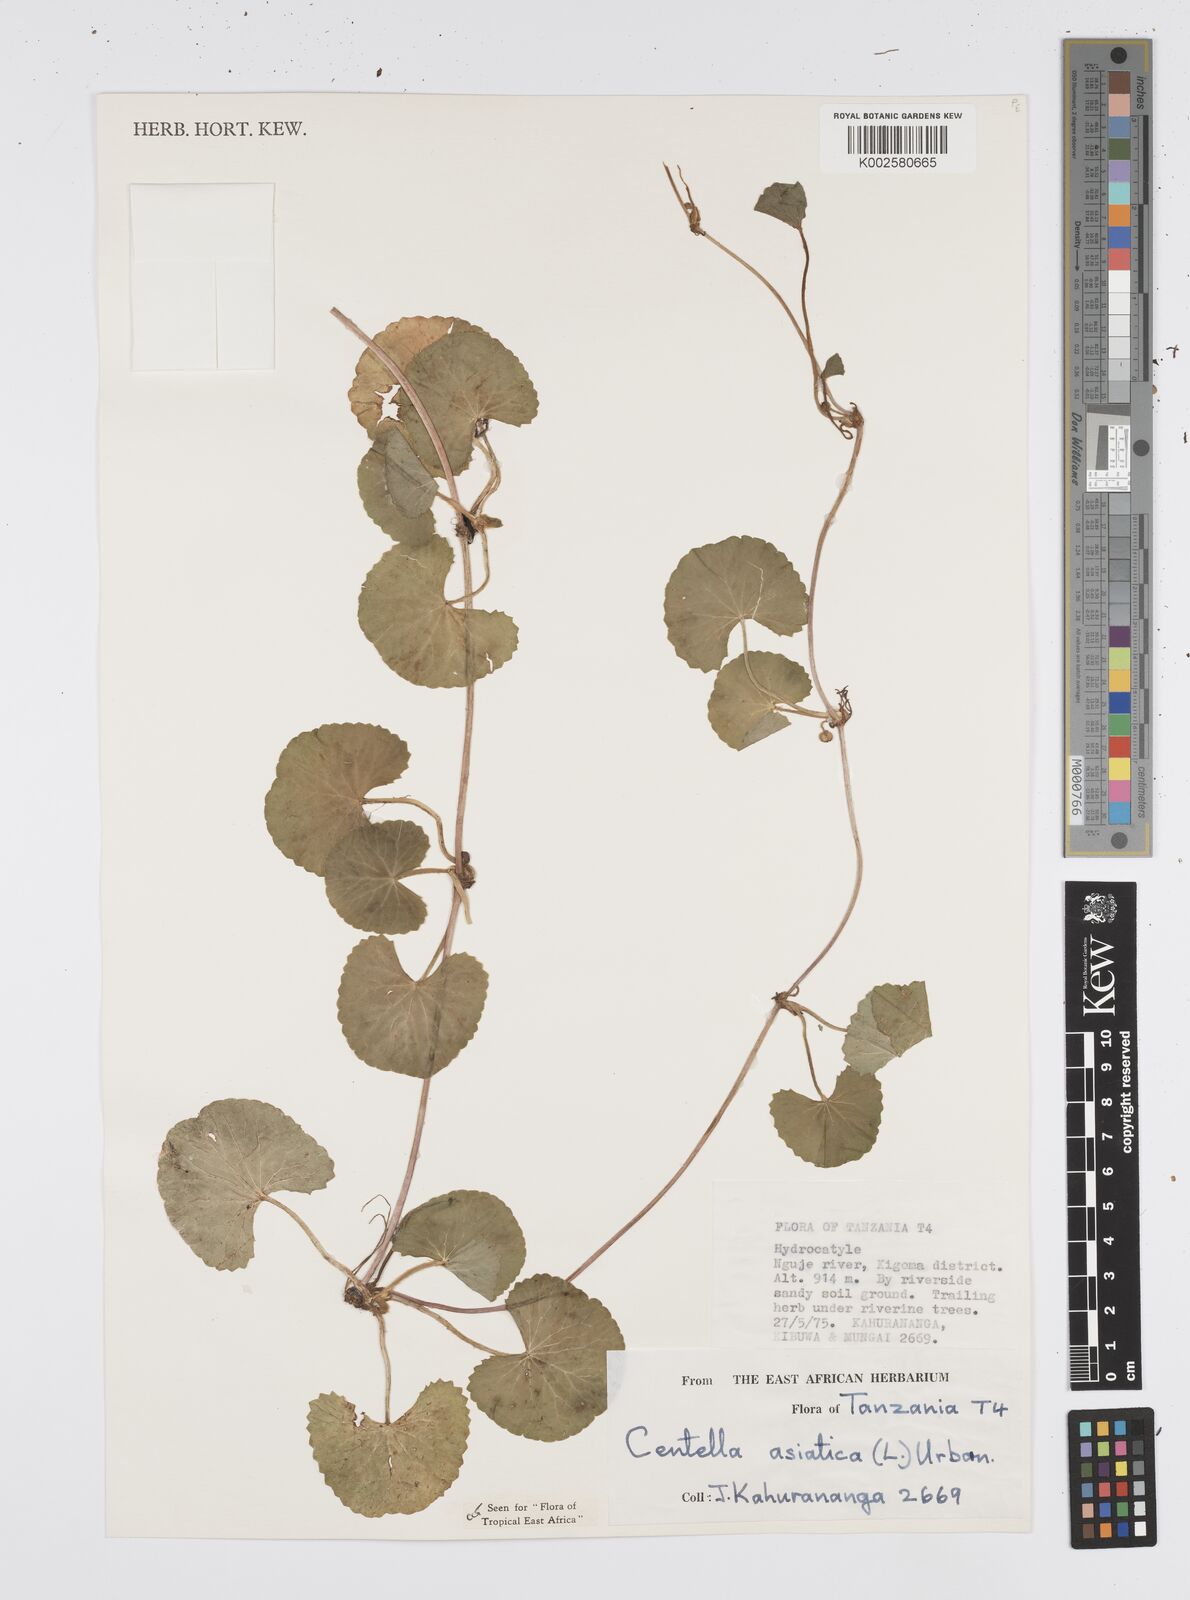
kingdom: Plantae
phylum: Tracheophyta
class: Magnoliopsida
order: Apiales
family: Apiaceae
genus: Centella
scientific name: Centella asiatica
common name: Spadeleaf
